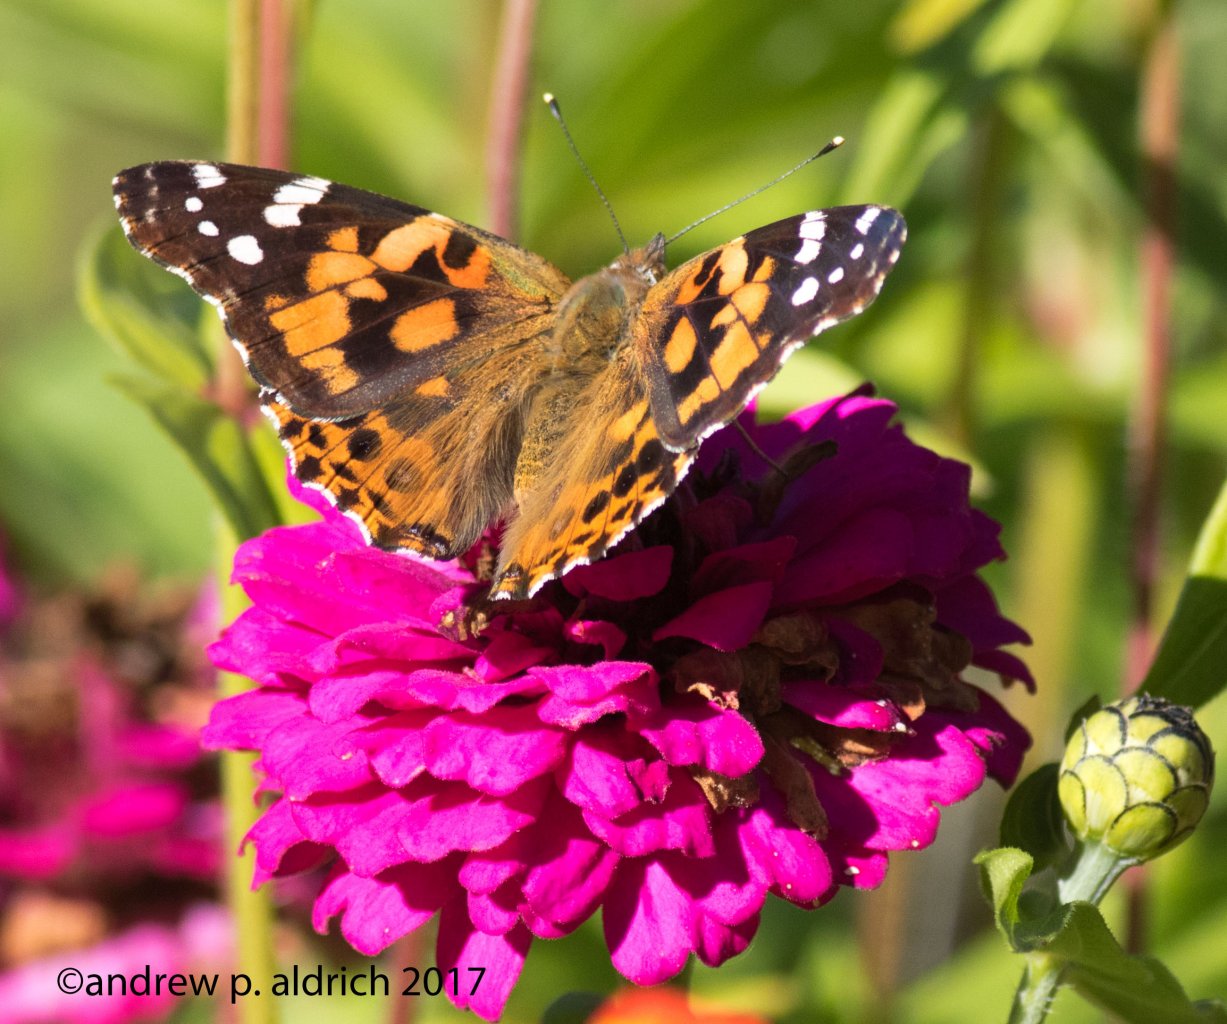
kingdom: Animalia
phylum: Arthropoda
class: Insecta
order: Lepidoptera
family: Nymphalidae
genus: Vanessa
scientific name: Vanessa cardui
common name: Painted Lady
